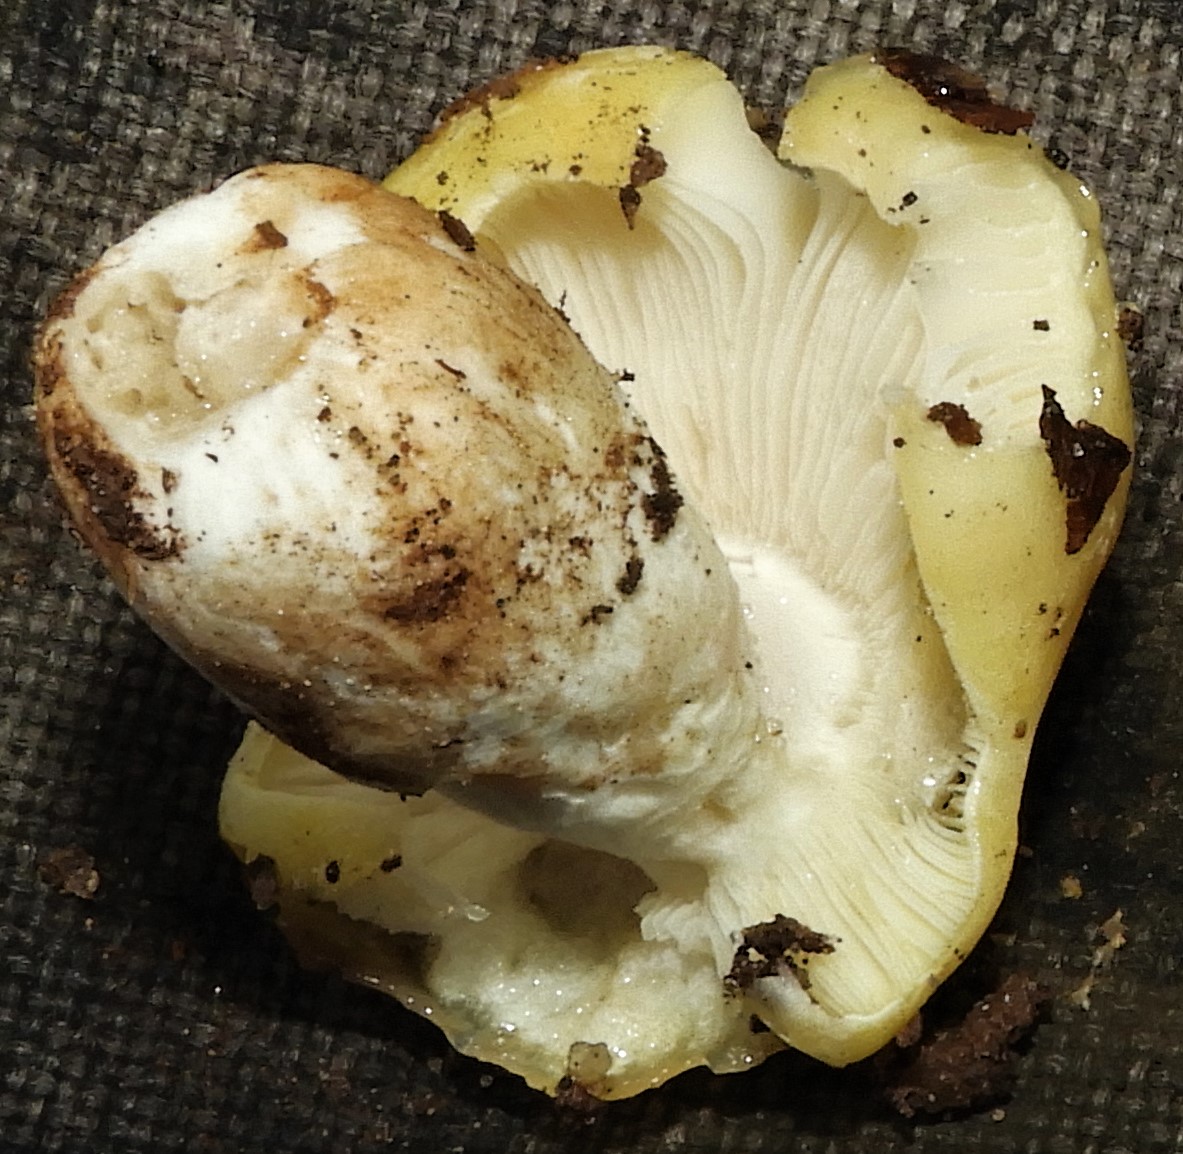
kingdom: Fungi
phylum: Basidiomycota
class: Agaricomycetes
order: Russulales
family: Russulaceae
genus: Russula
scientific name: Russula violeipes
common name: ferskengul skørhat
